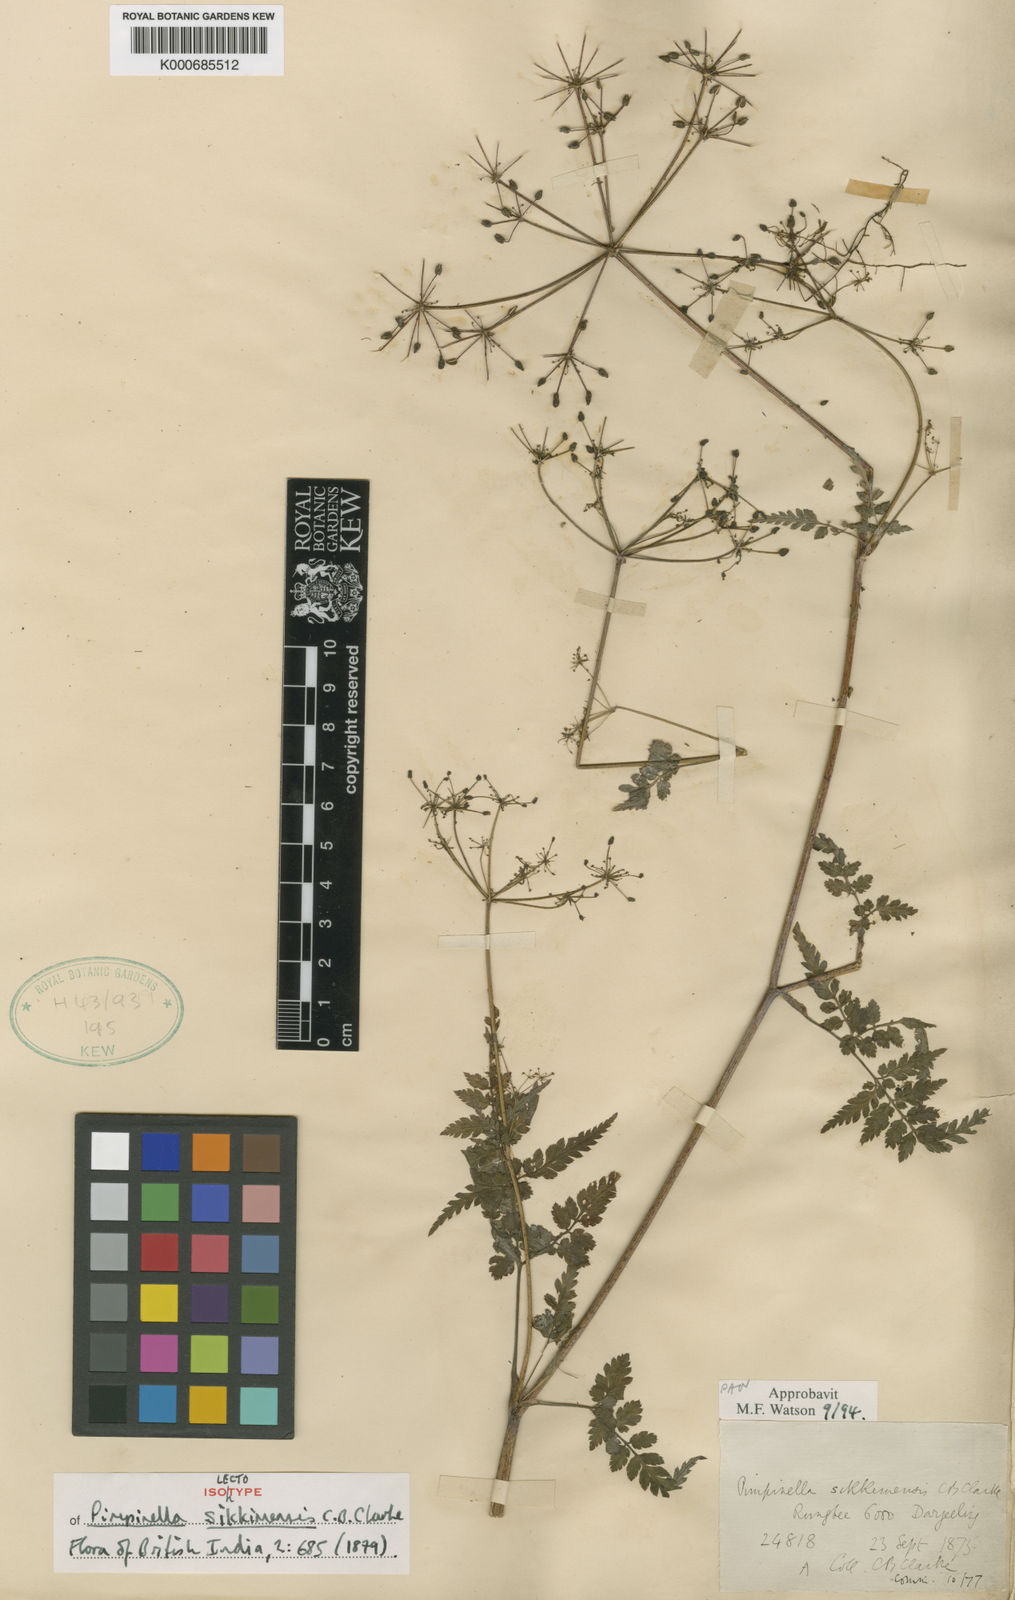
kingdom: Plantae
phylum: Tracheophyta
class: Magnoliopsida
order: Apiales
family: Apiaceae
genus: Pimpinella
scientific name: Pimpinella sikkimensis
